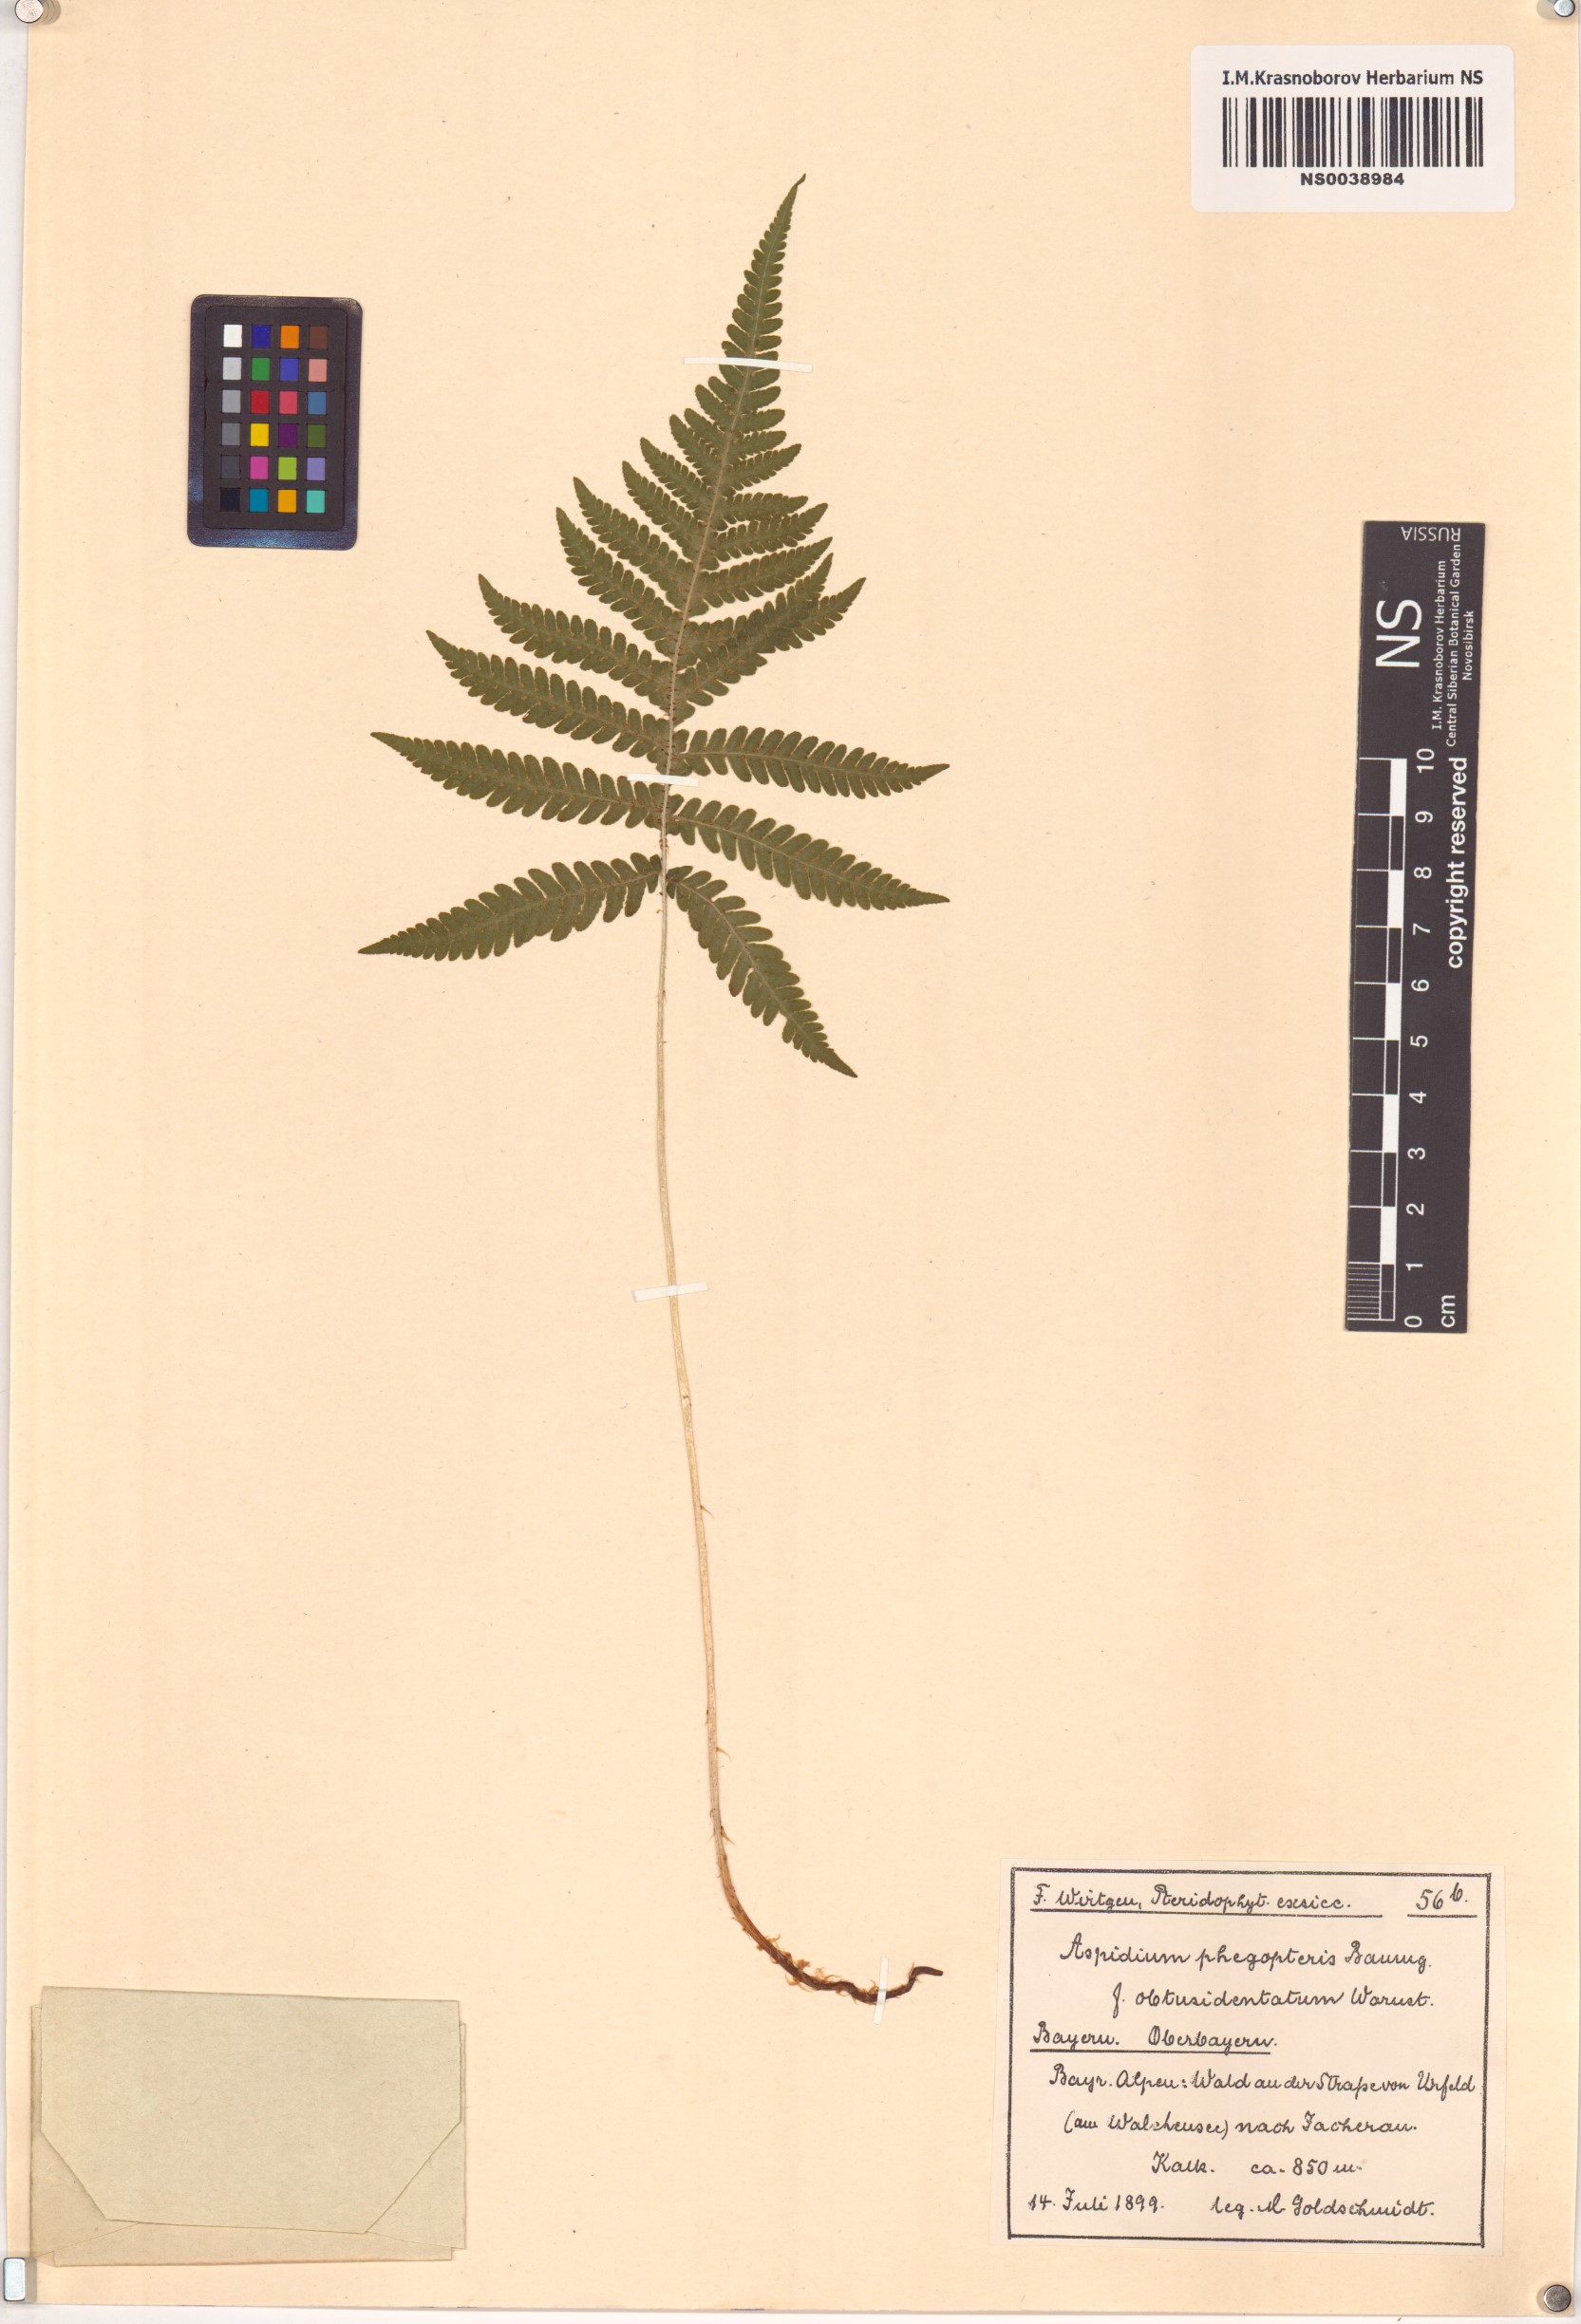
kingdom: Plantae
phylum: Tracheophyta
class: Polypodiopsida
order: Polypodiales
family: Thelypteridaceae
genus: Phegopteris
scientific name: Phegopteris connectilis
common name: Beech fern
